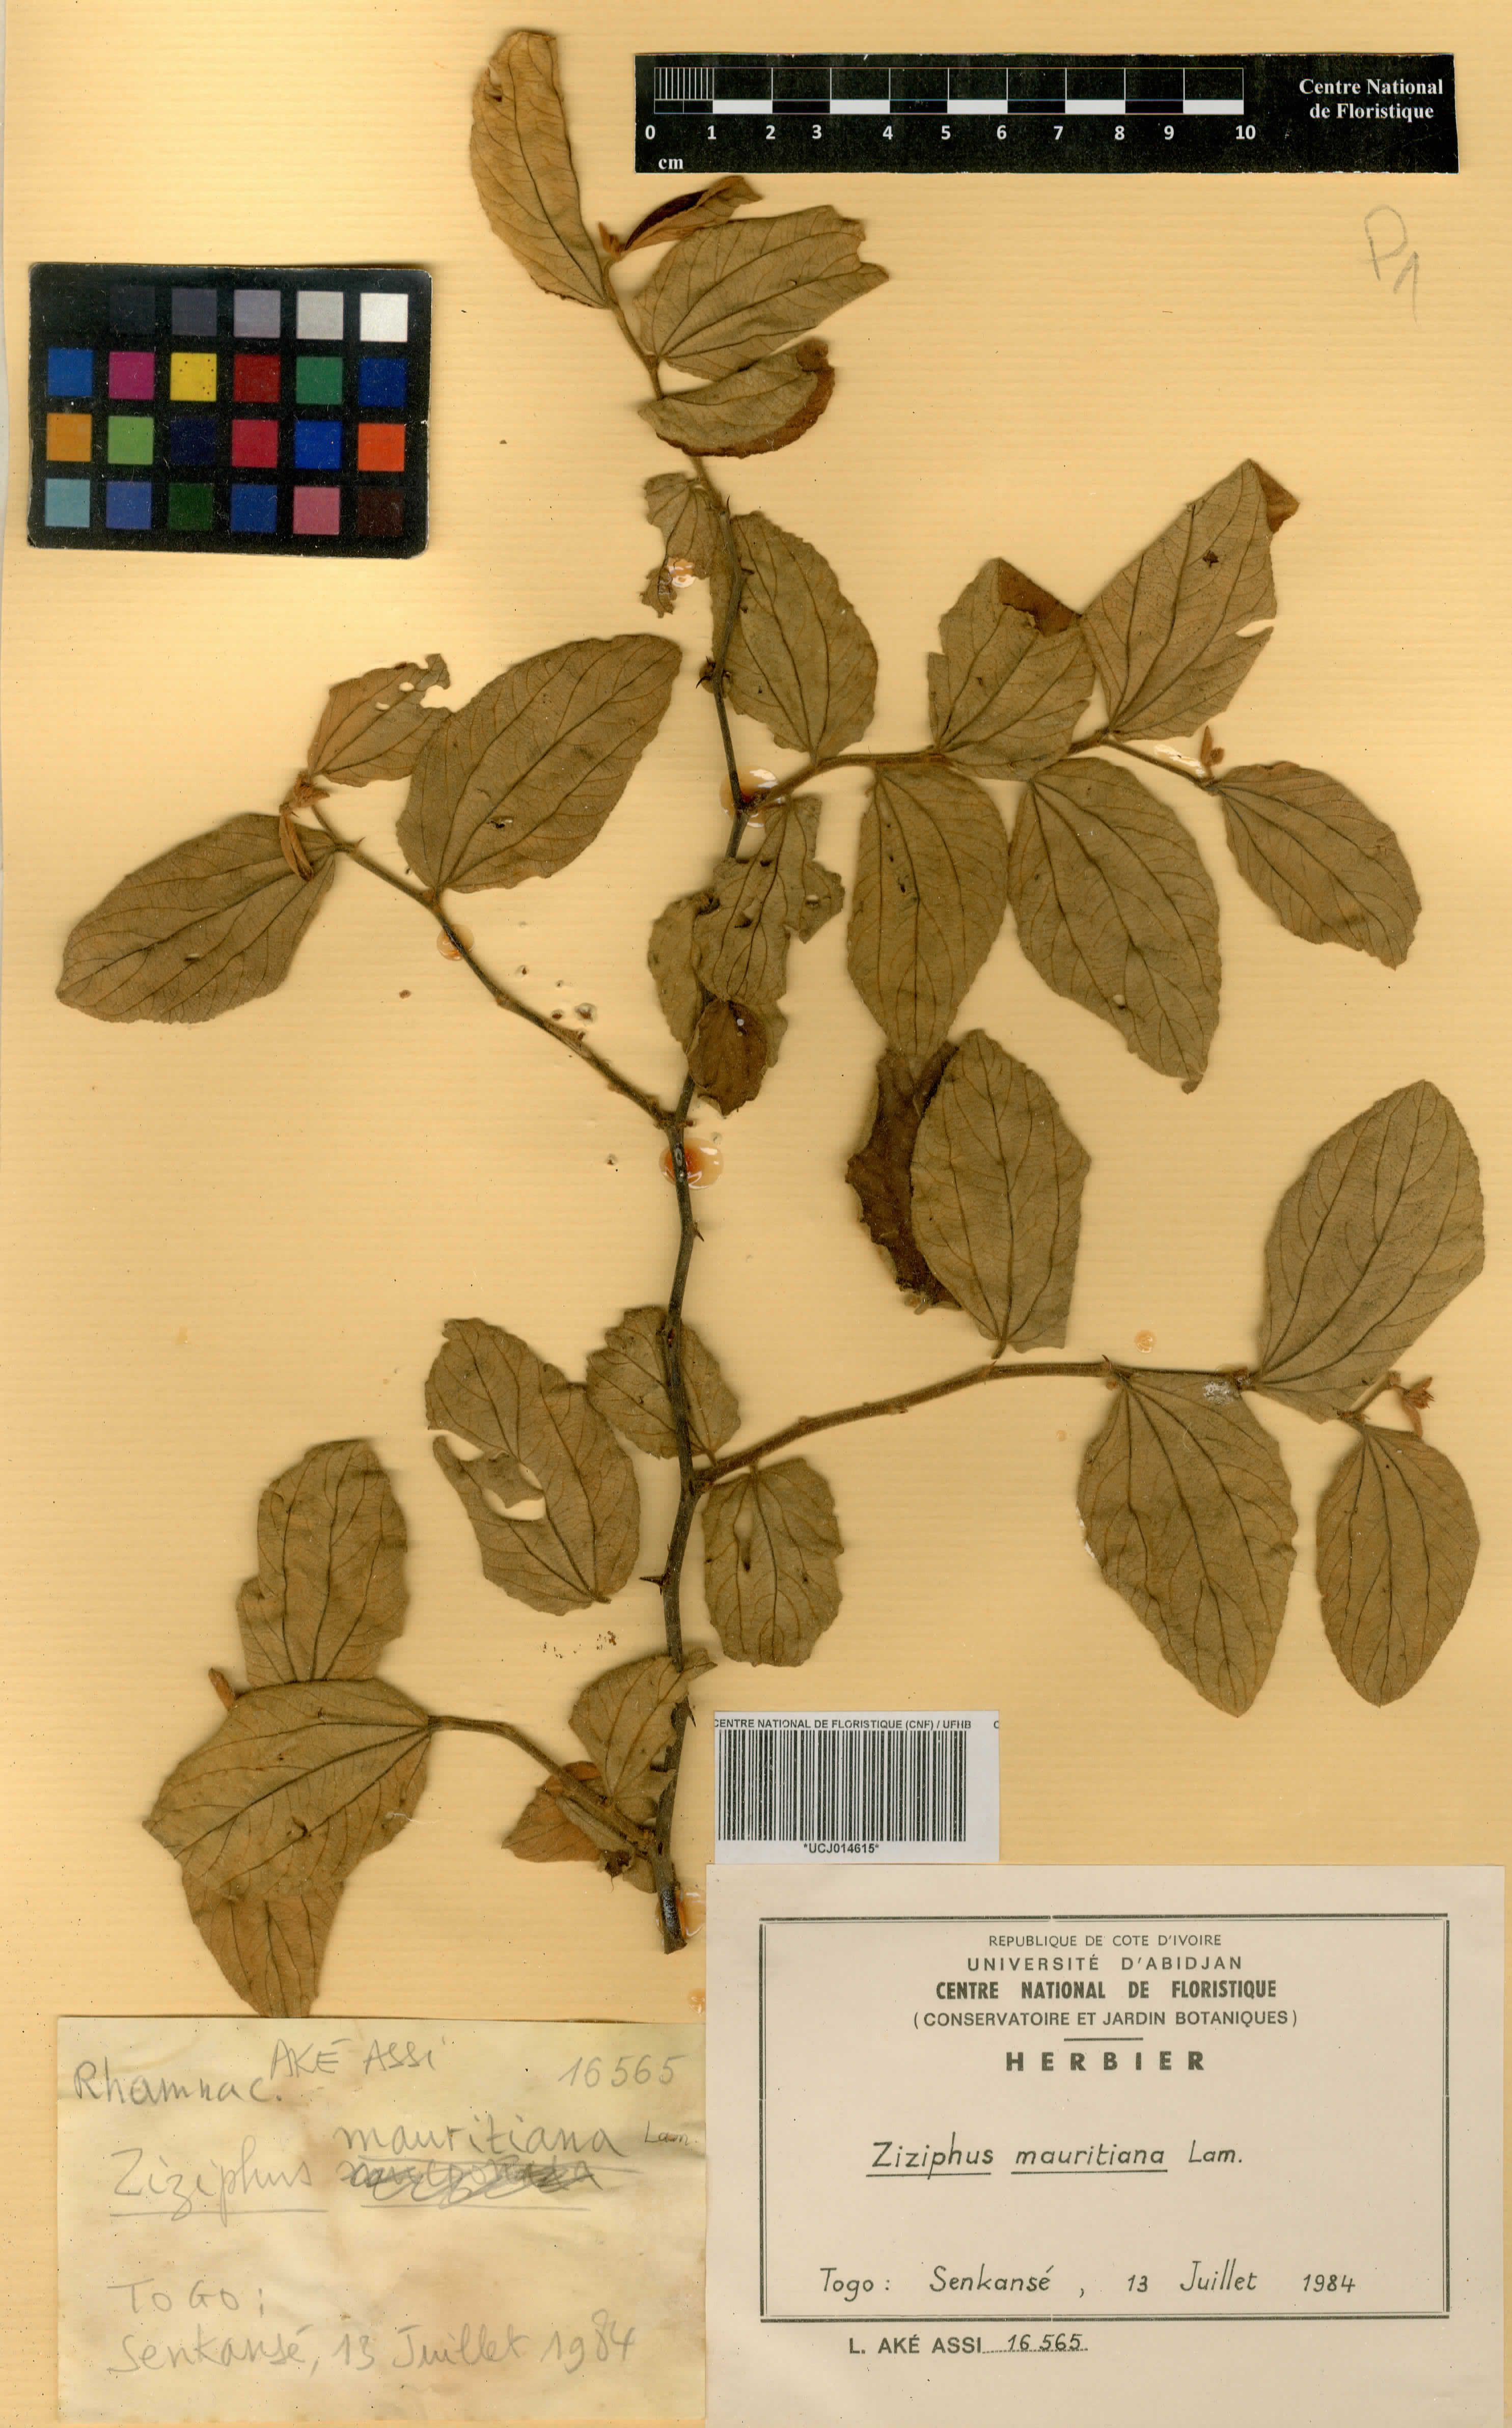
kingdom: Plantae
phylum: Tracheophyta
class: Magnoliopsida
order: Rosales
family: Rhamnaceae
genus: Ziziphus
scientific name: Ziziphus mauritiana
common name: Indian jujube
